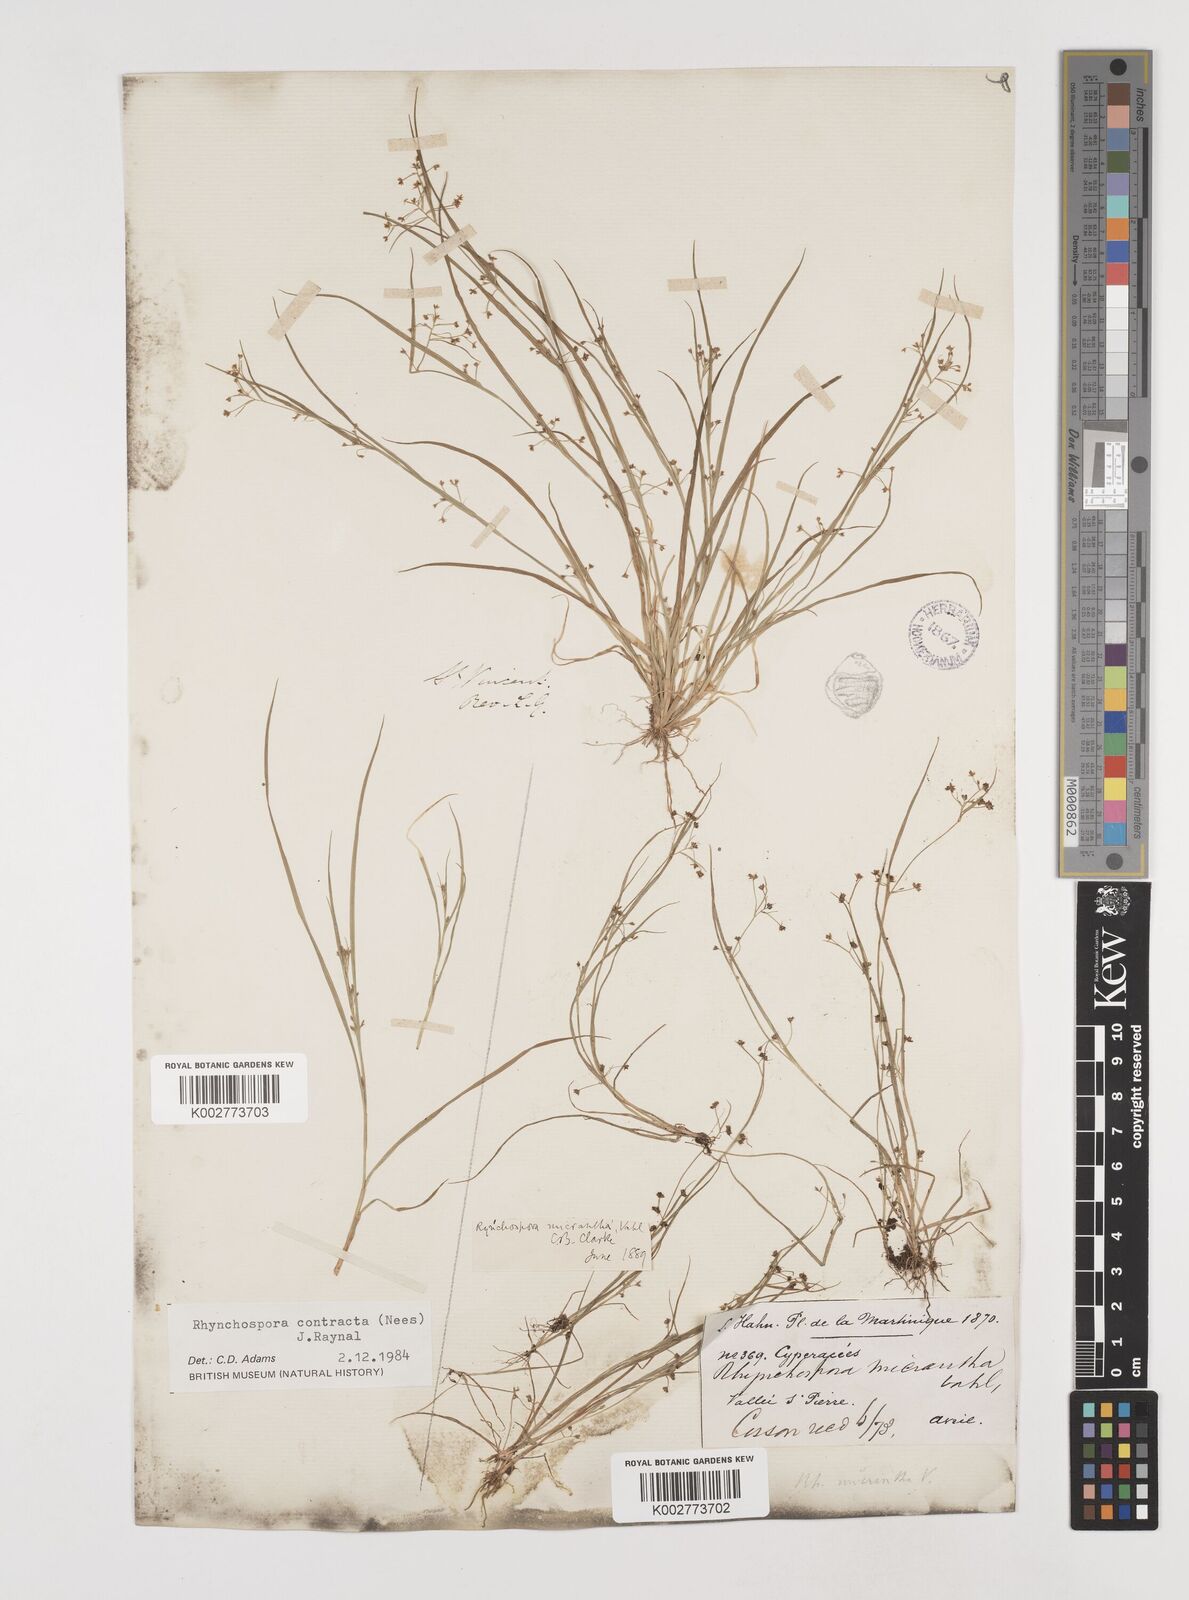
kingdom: Plantae
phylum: Tracheophyta
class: Liliopsida
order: Poales
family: Cyperaceae
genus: Rhynchospora
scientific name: Rhynchospora contracta
